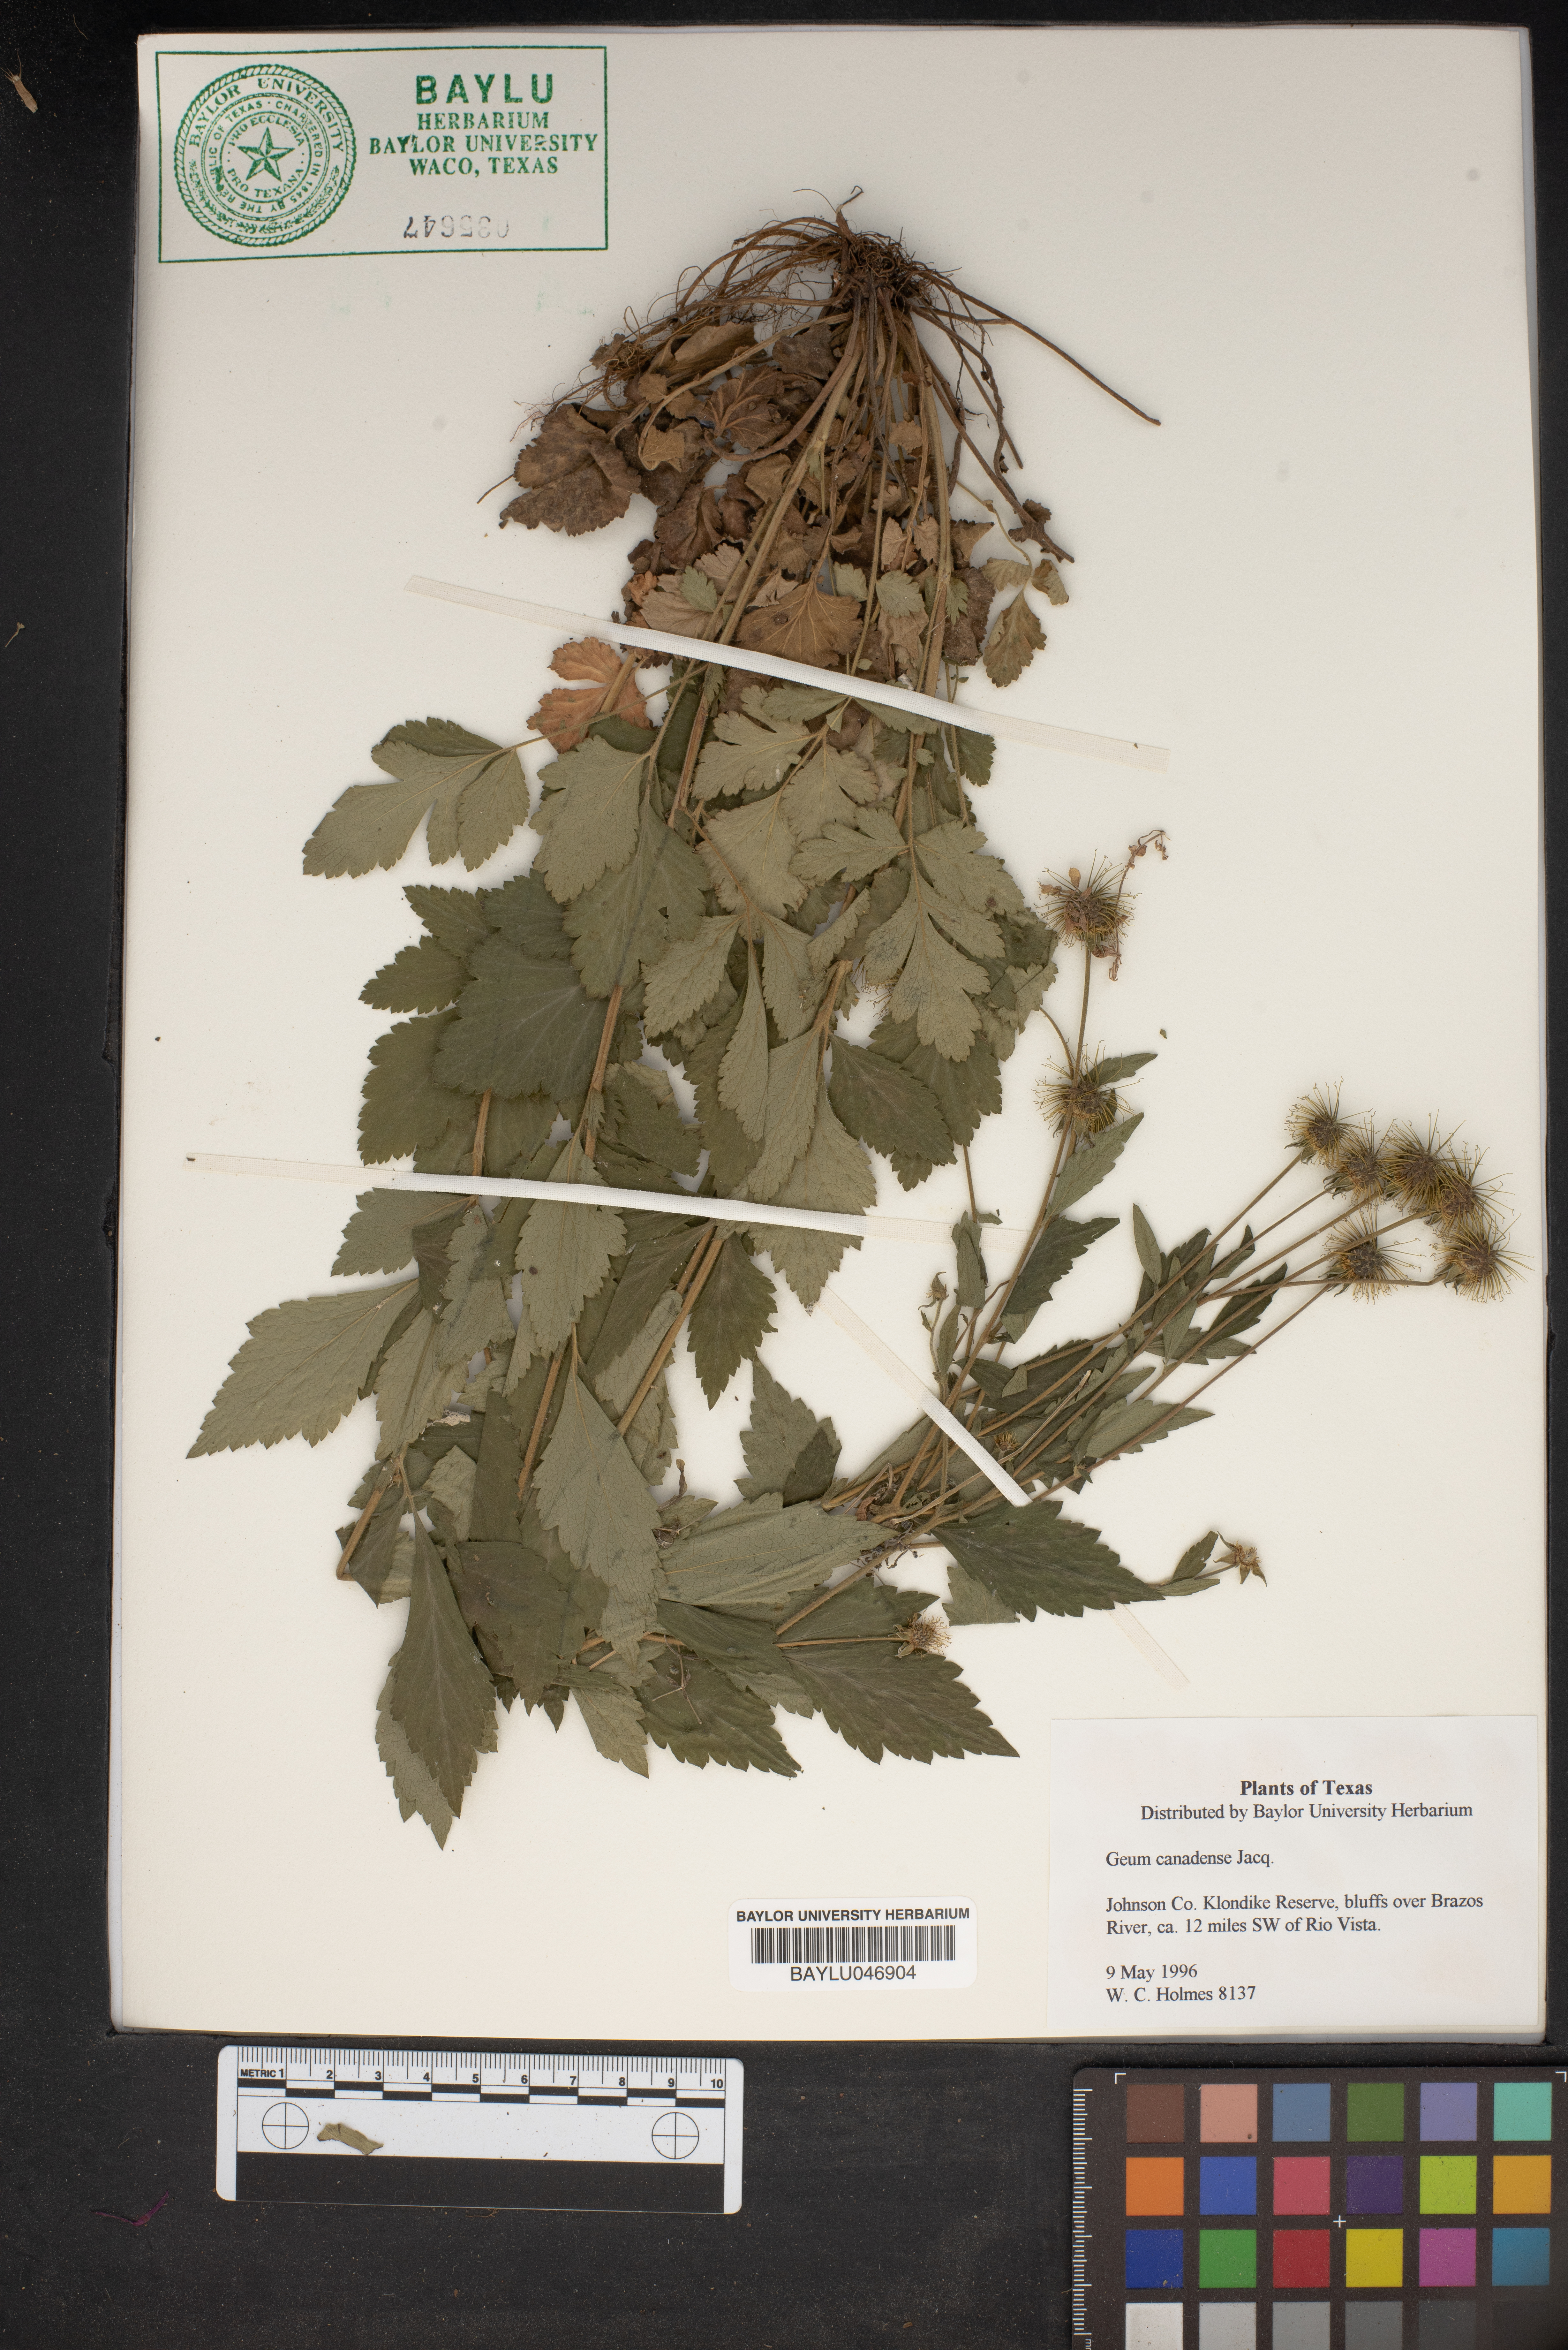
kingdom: Plantae
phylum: Tracheophyta
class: Magnoliopsida
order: Rosales
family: Rosaceae
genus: Geum
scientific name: Geum canadense
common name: White avens
